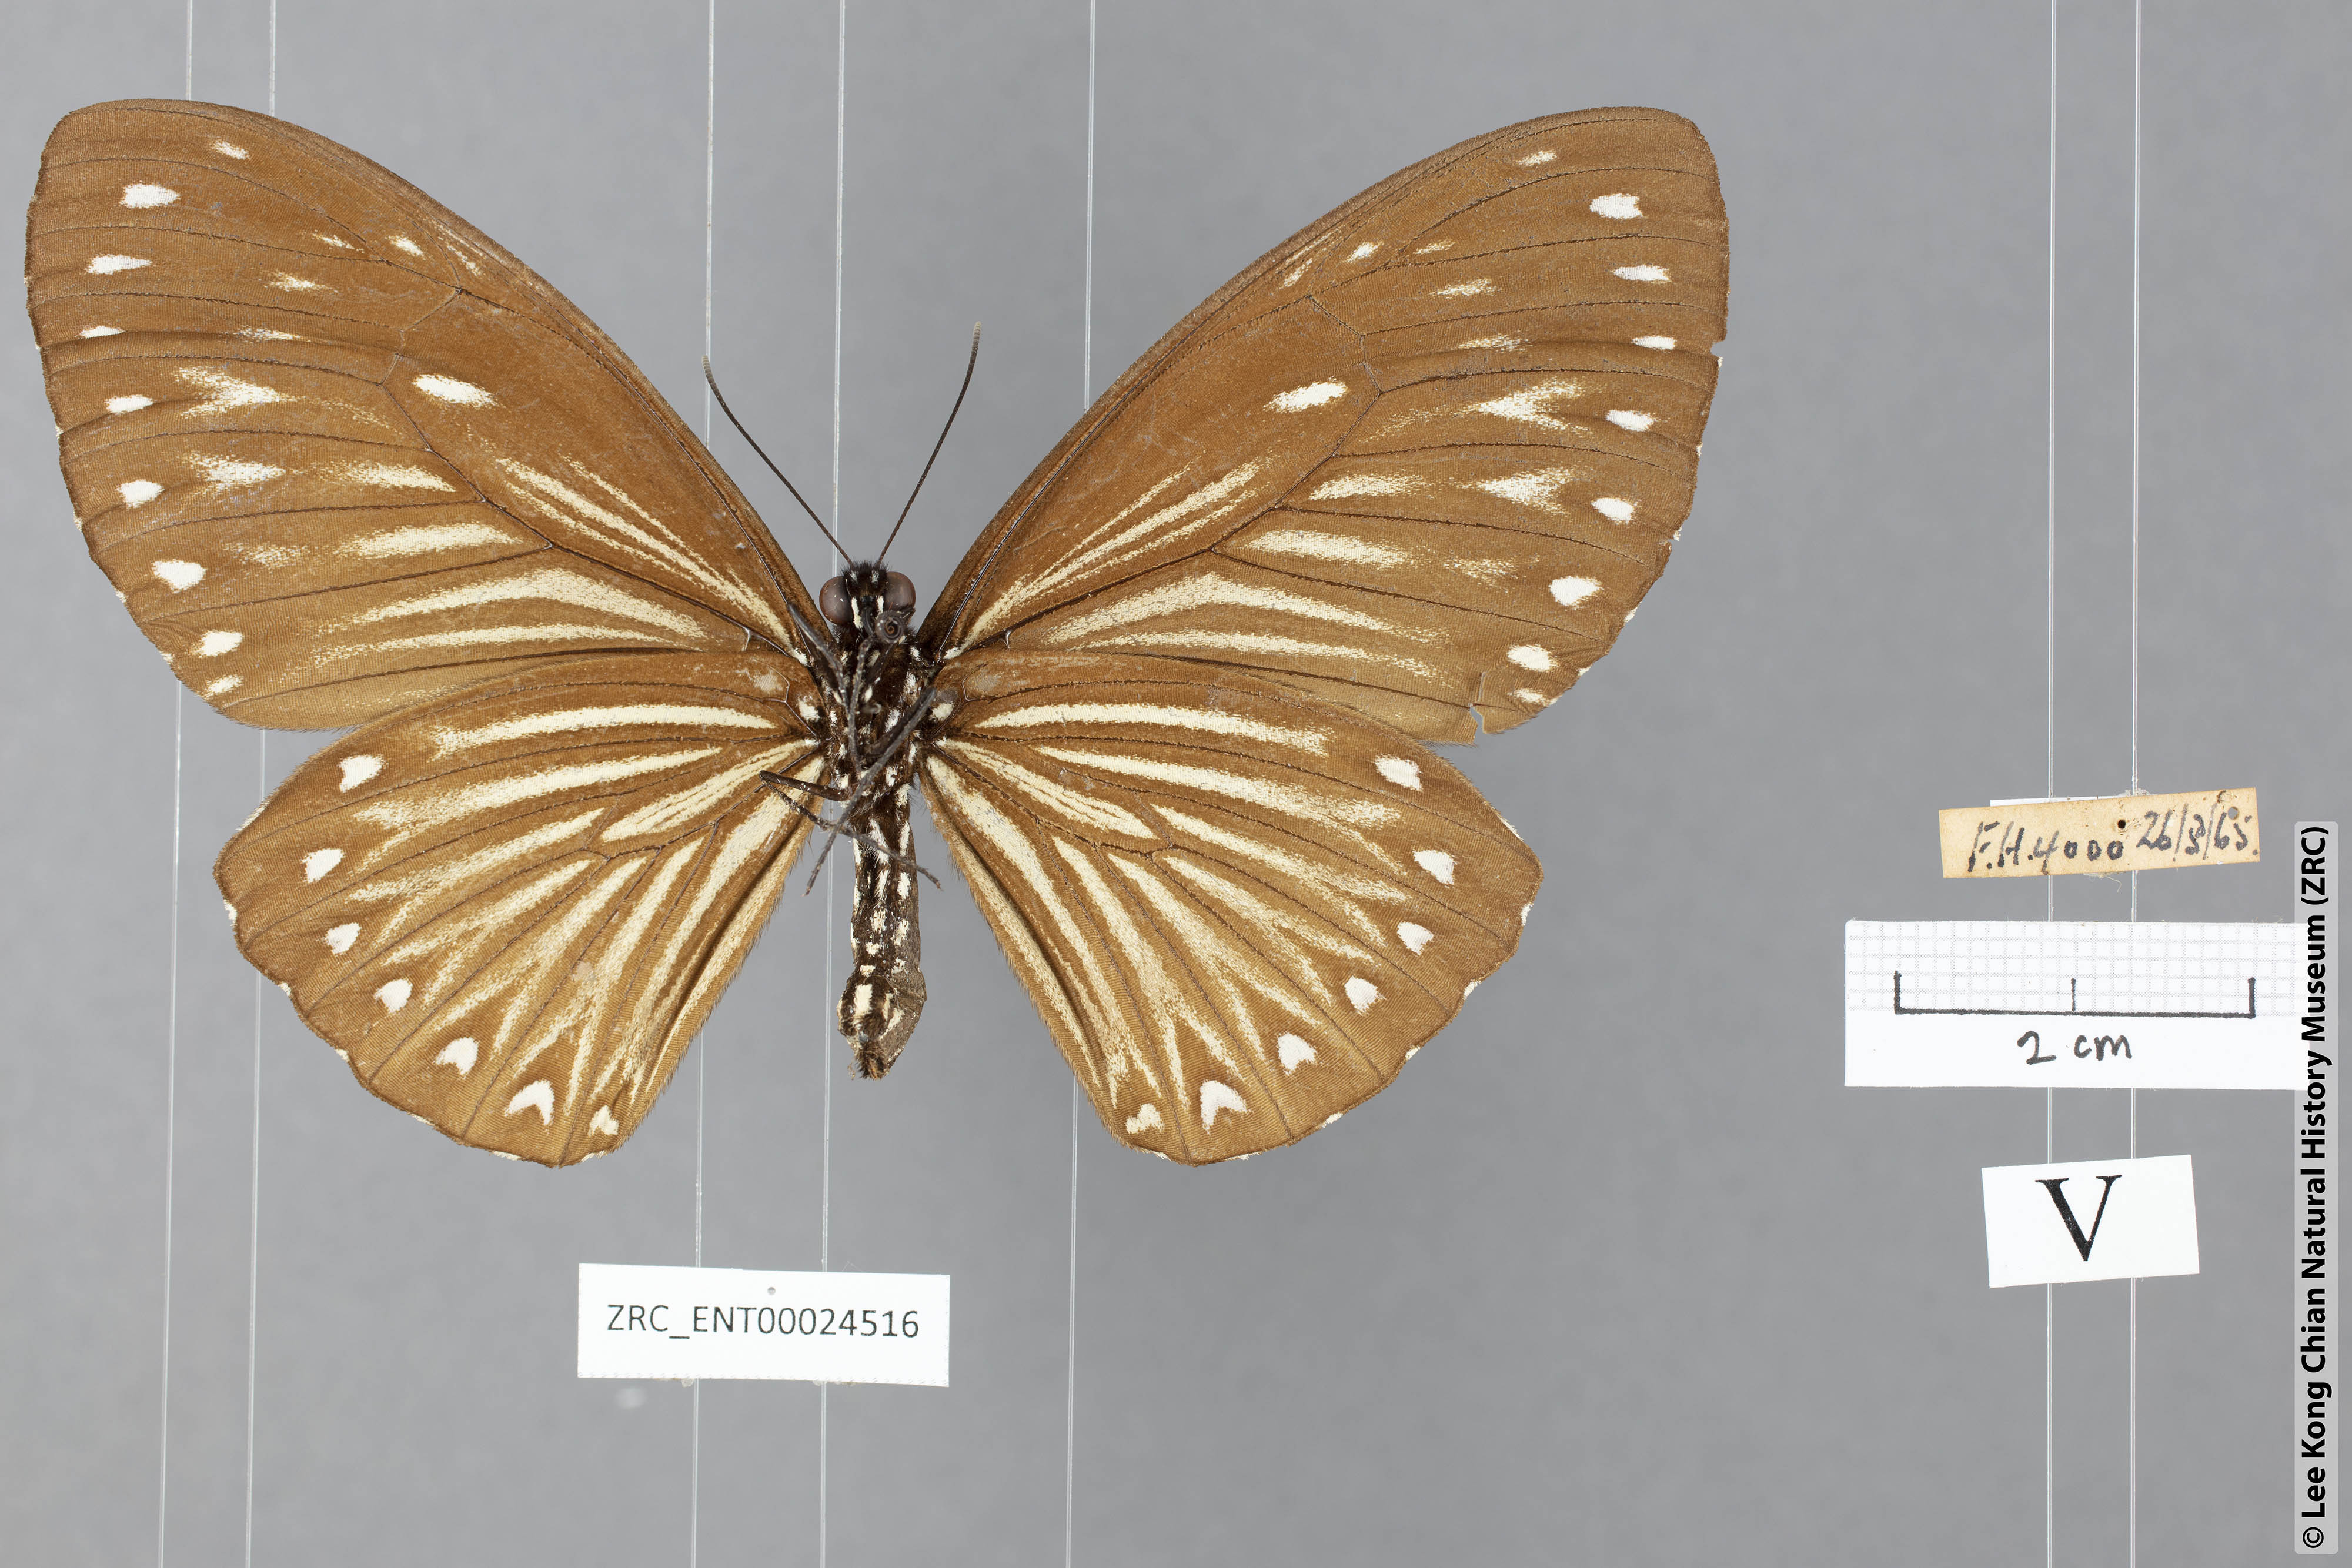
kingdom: Animalia
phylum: Arthropoda
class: Insecta
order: Lepidoptera
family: Papilionidae
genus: Chilasa
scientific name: Chilasa paradoxa
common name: Great mime
